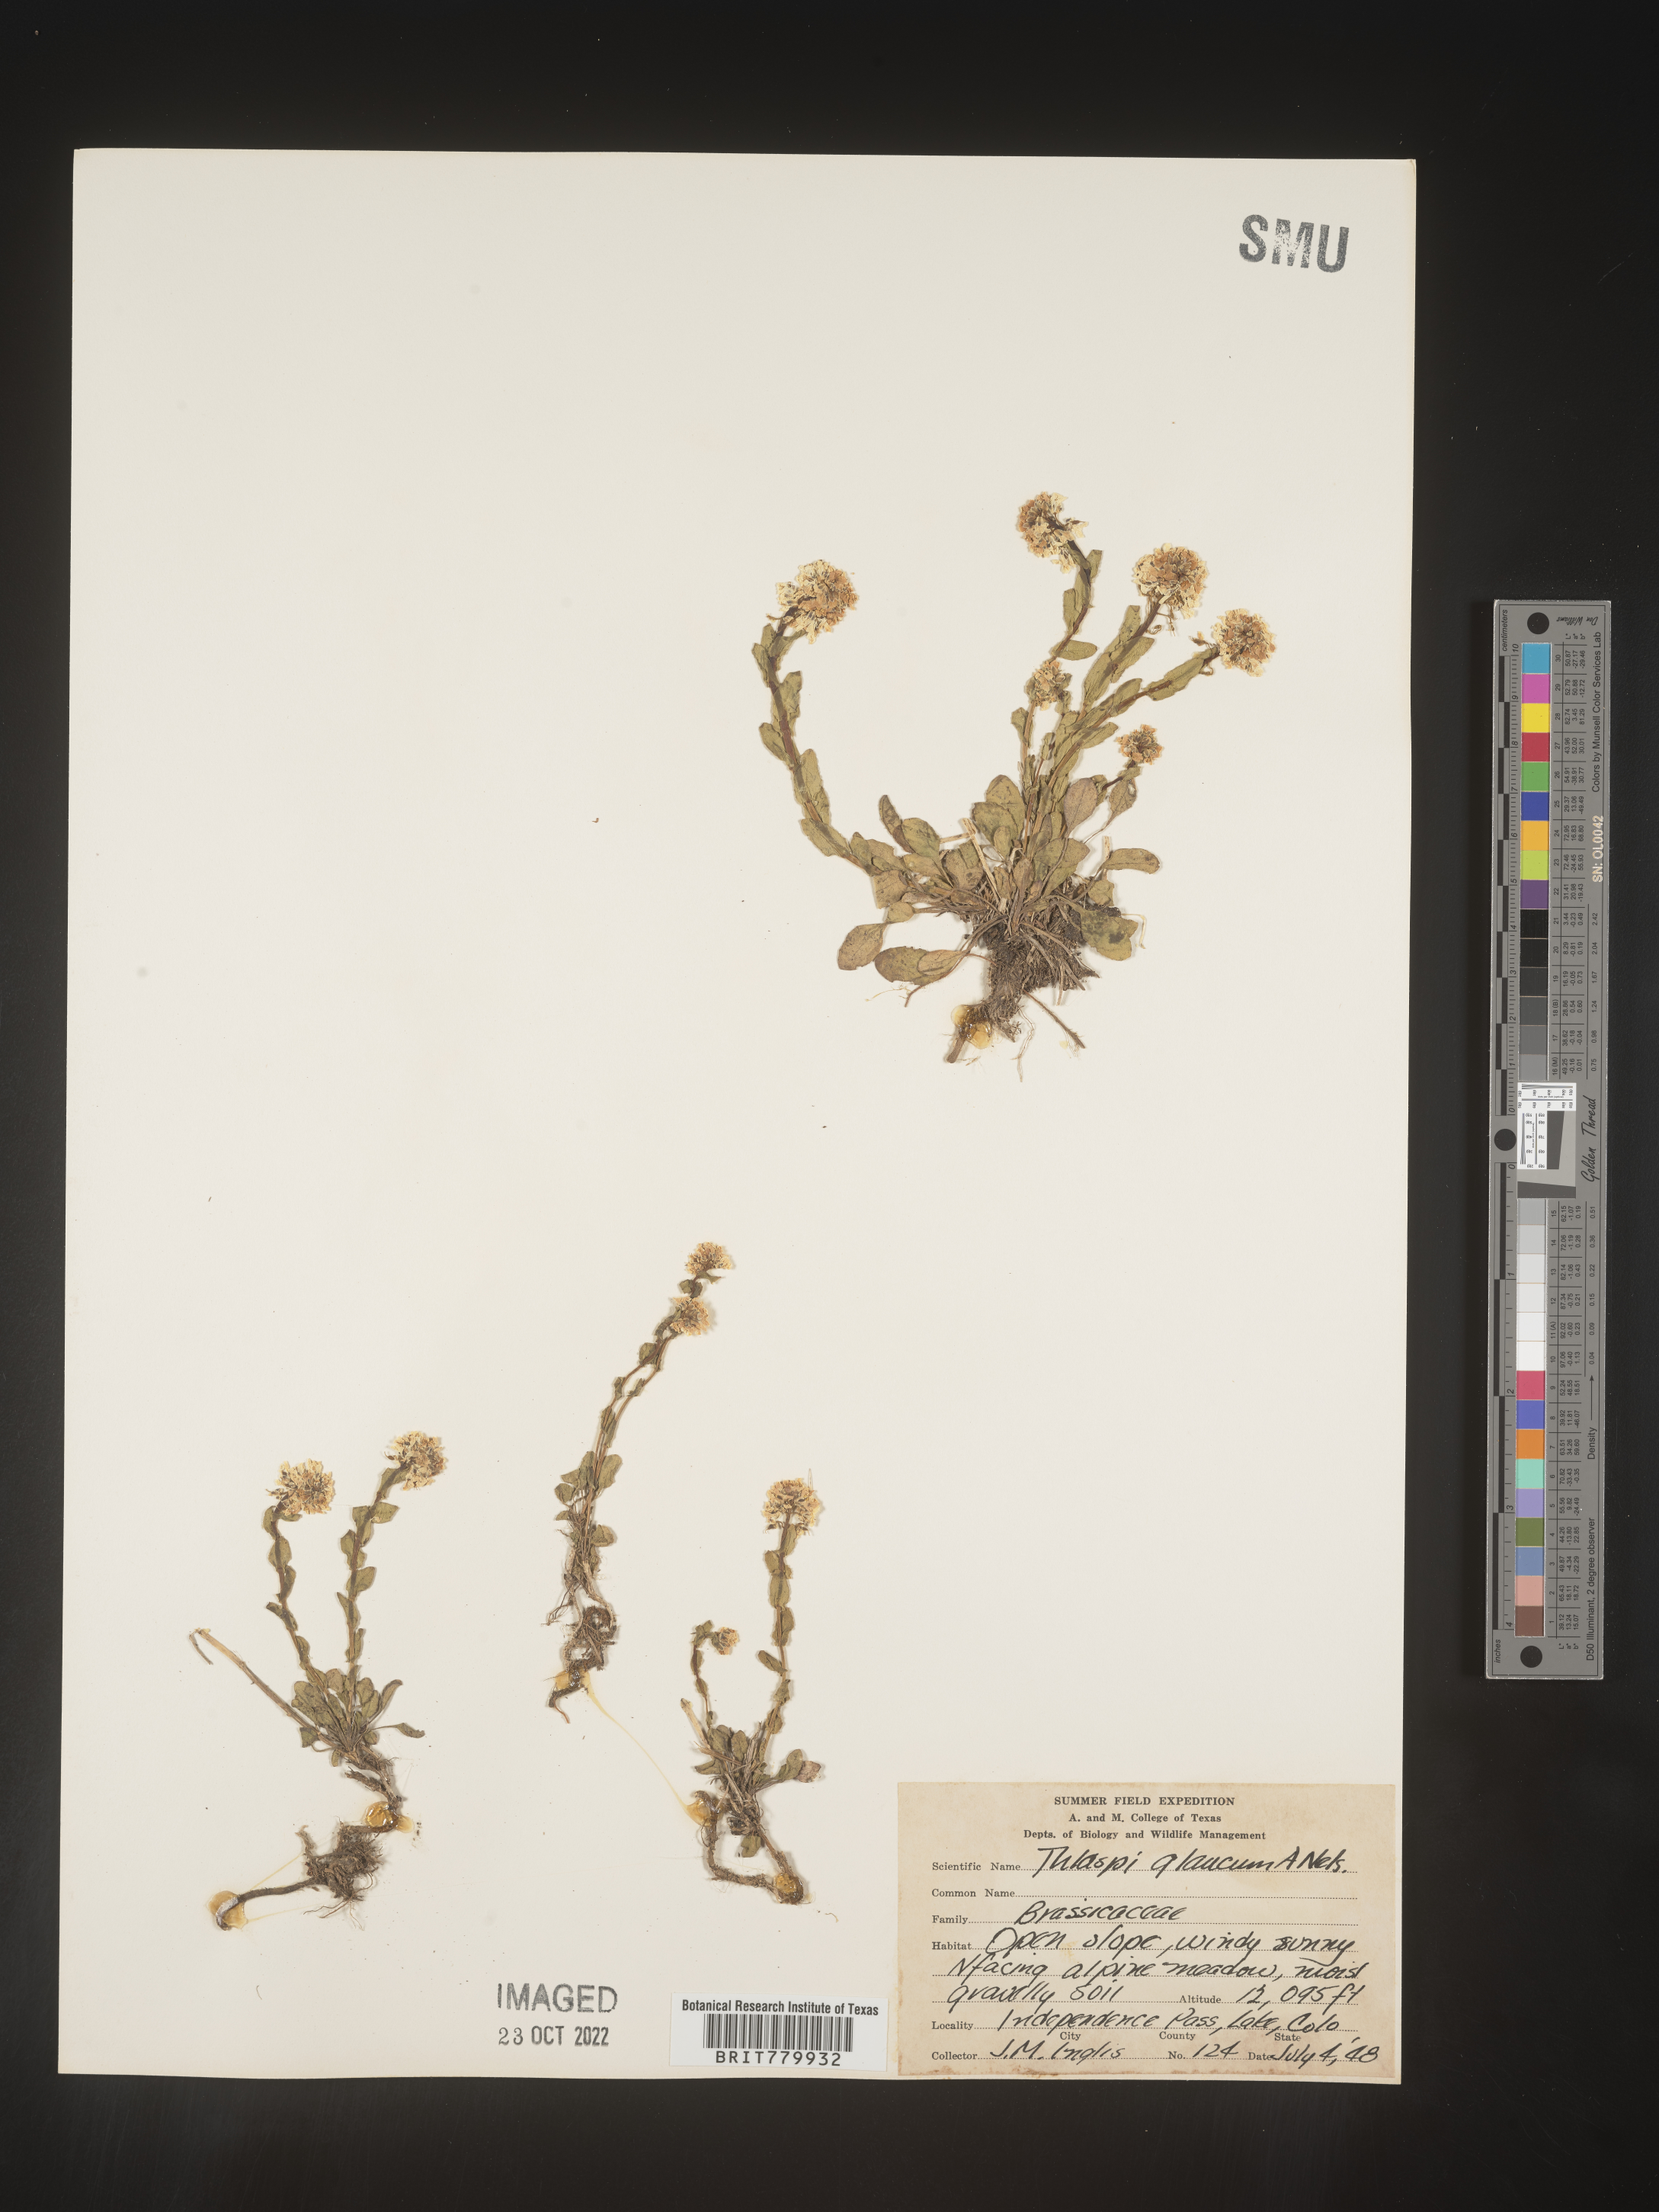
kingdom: Plantae
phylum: Tracheophyta
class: Magnoliopsida
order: Brassicales
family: Brassicaceae
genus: Thlaspi
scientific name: Thlaspi
